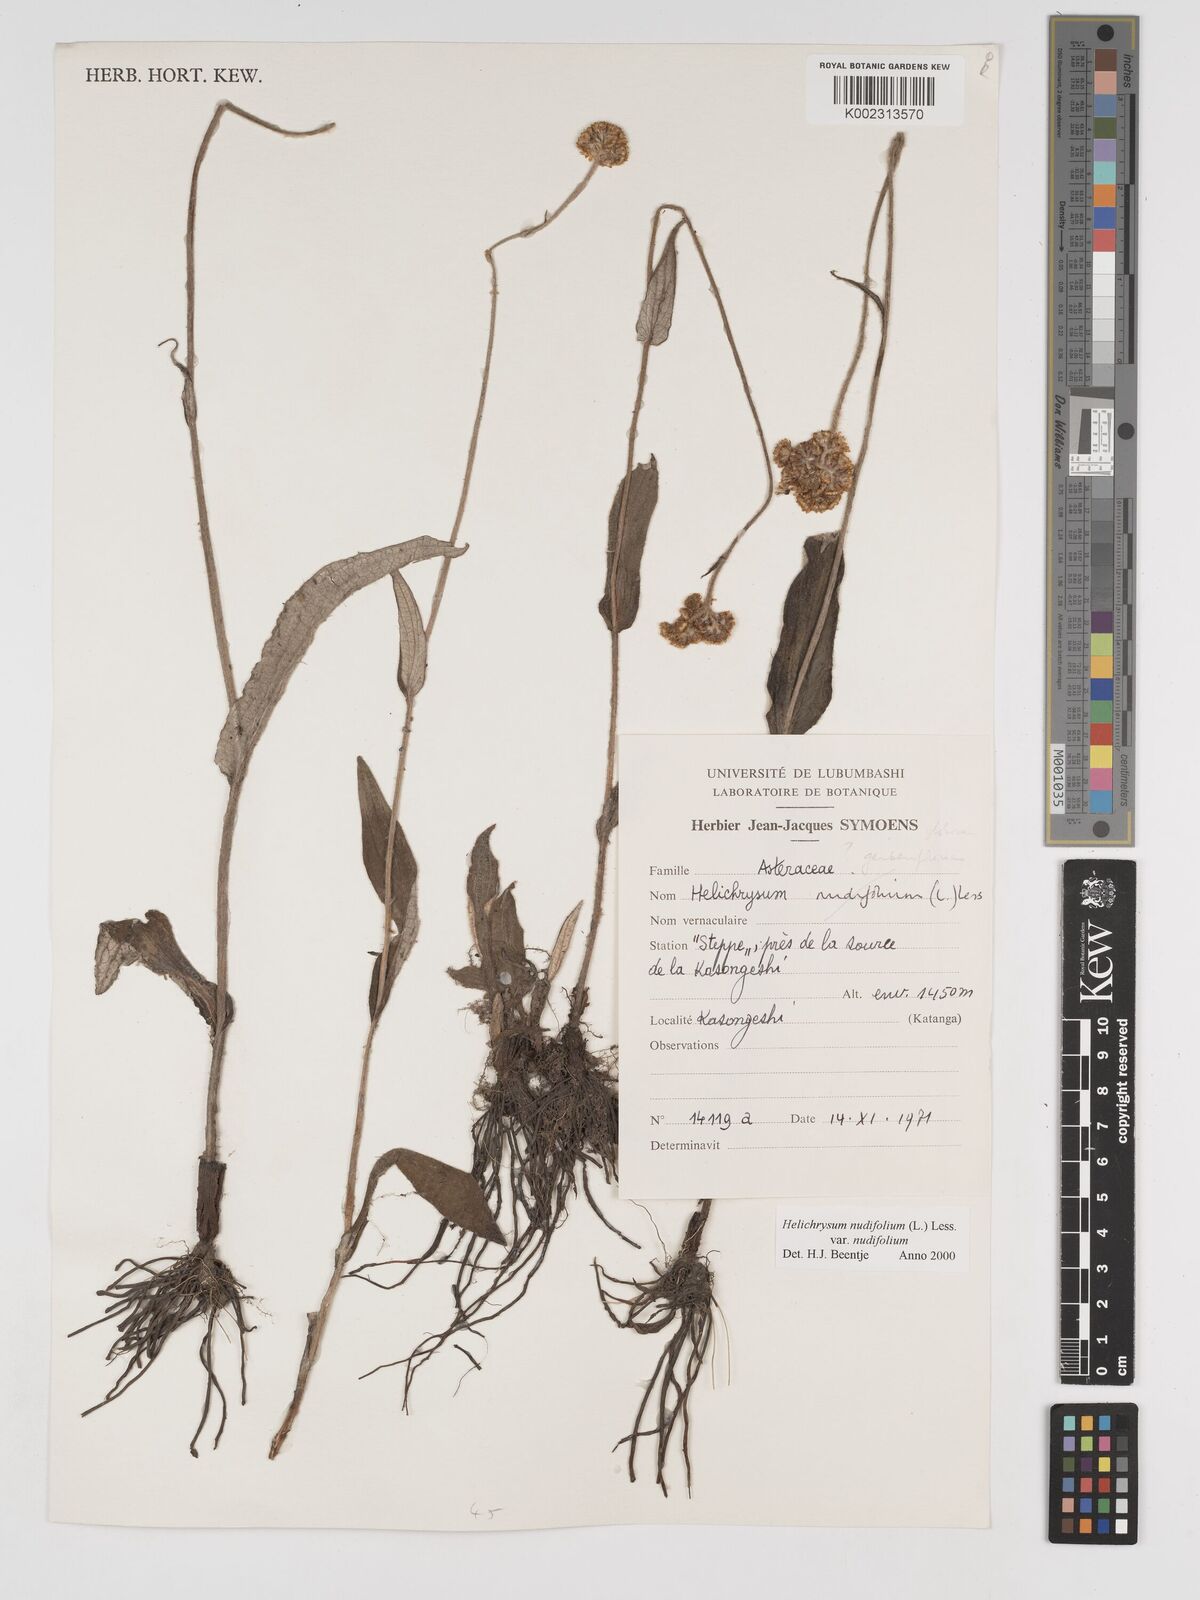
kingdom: Plantae
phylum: Tracheophyta
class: Magnoliopsida
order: Asterales
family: Asteraceae
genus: Helichrysum
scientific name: Helichrysum nudifolium
